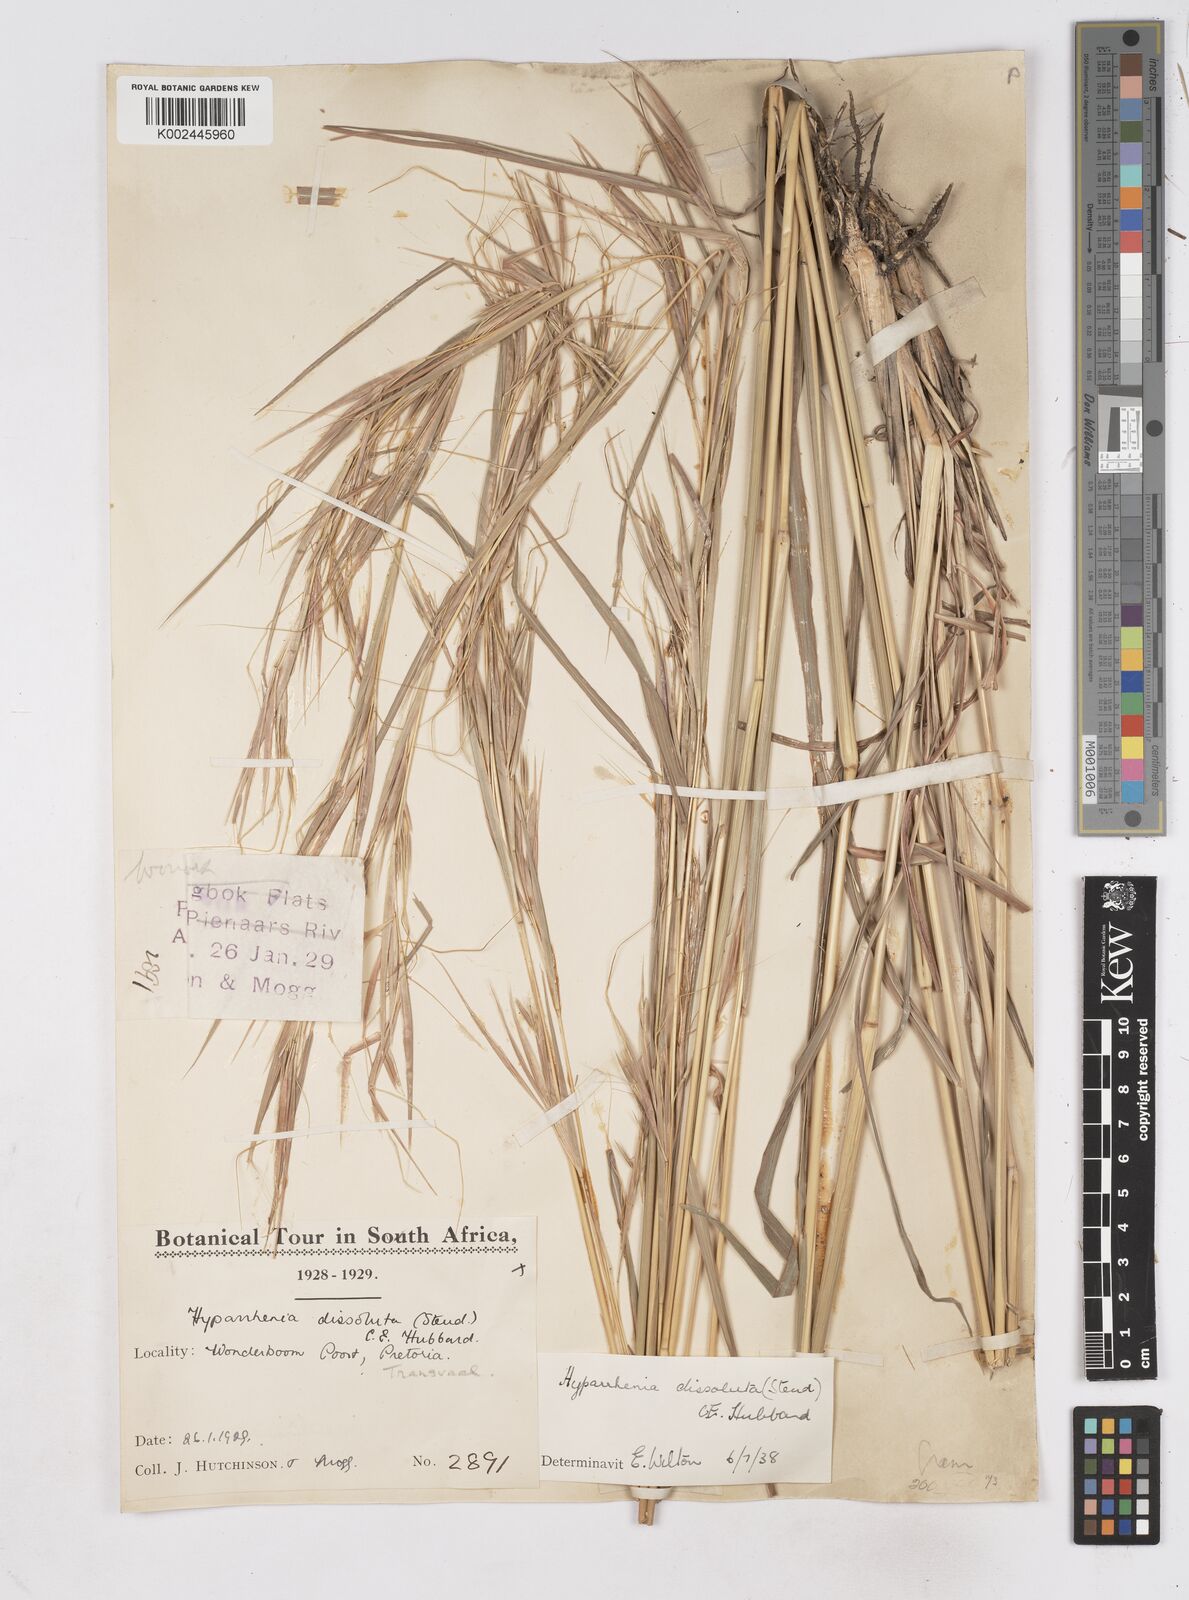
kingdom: Plantae
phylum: Tracheophyta
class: Liliopsida
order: Poales
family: Poaceae
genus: Hyperthelia
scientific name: Hyperthelia dissoluta
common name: Yellow thatching grass
